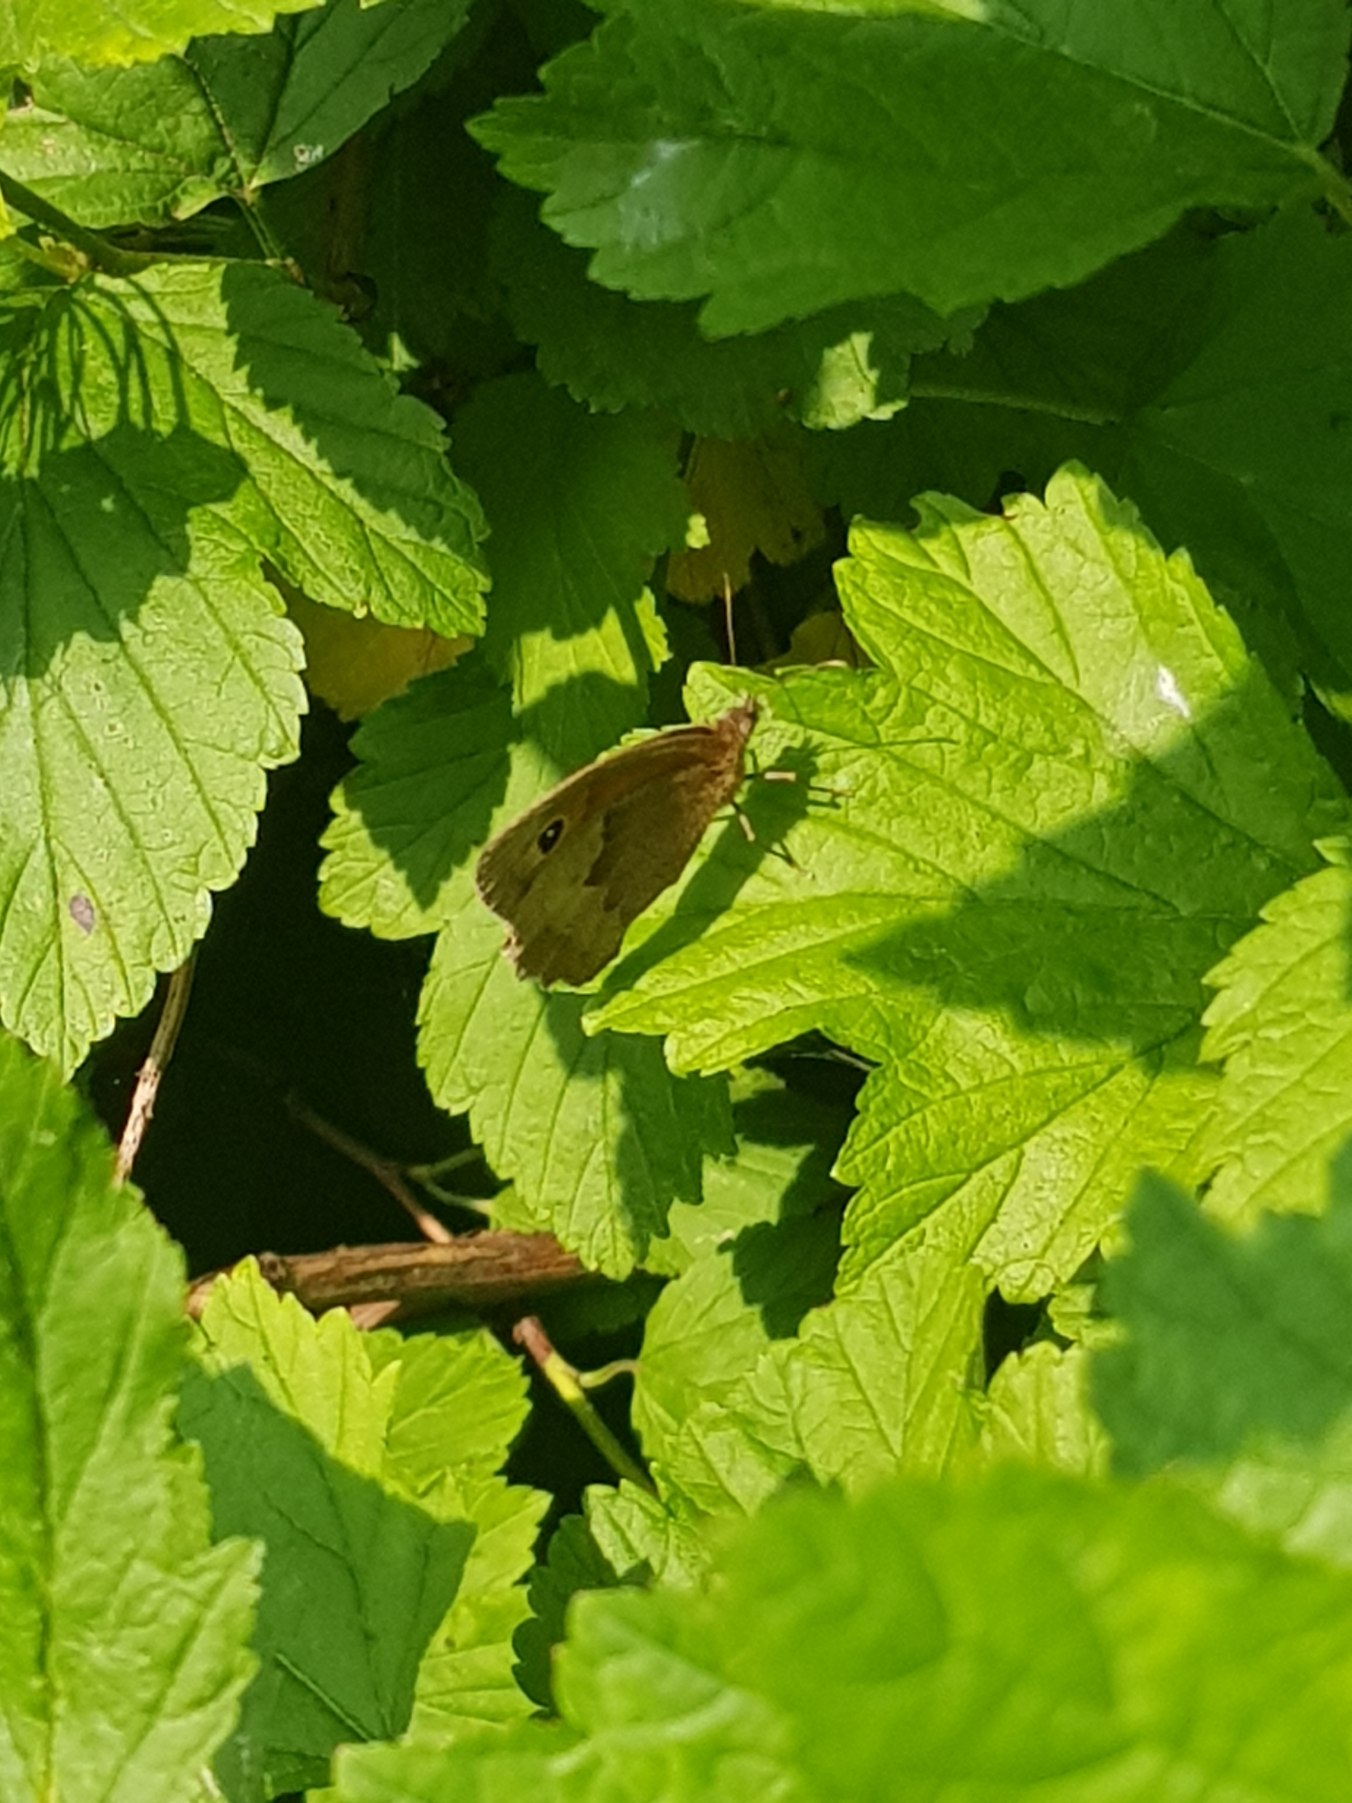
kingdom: Animalia
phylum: Arthropoda
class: Insecta
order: Lepidoptera
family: Nymphalidae
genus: Maniola
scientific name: Maniola jurtina
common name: Græsrandøje
